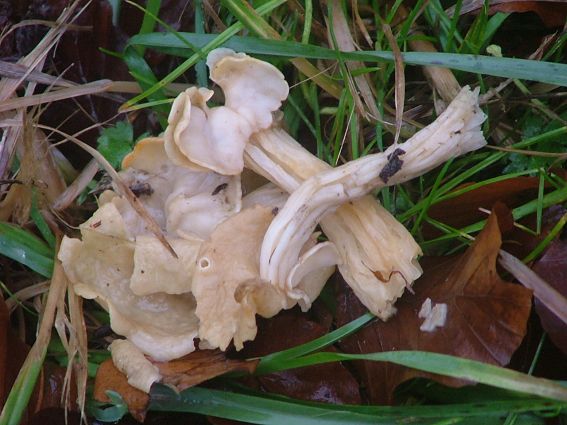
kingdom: Fungi
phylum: Ascomycota
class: Pezizomycetes
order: Pezizales
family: Helvellaceae
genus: Helvella
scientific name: Helvella crispa
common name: kruset foldhat
